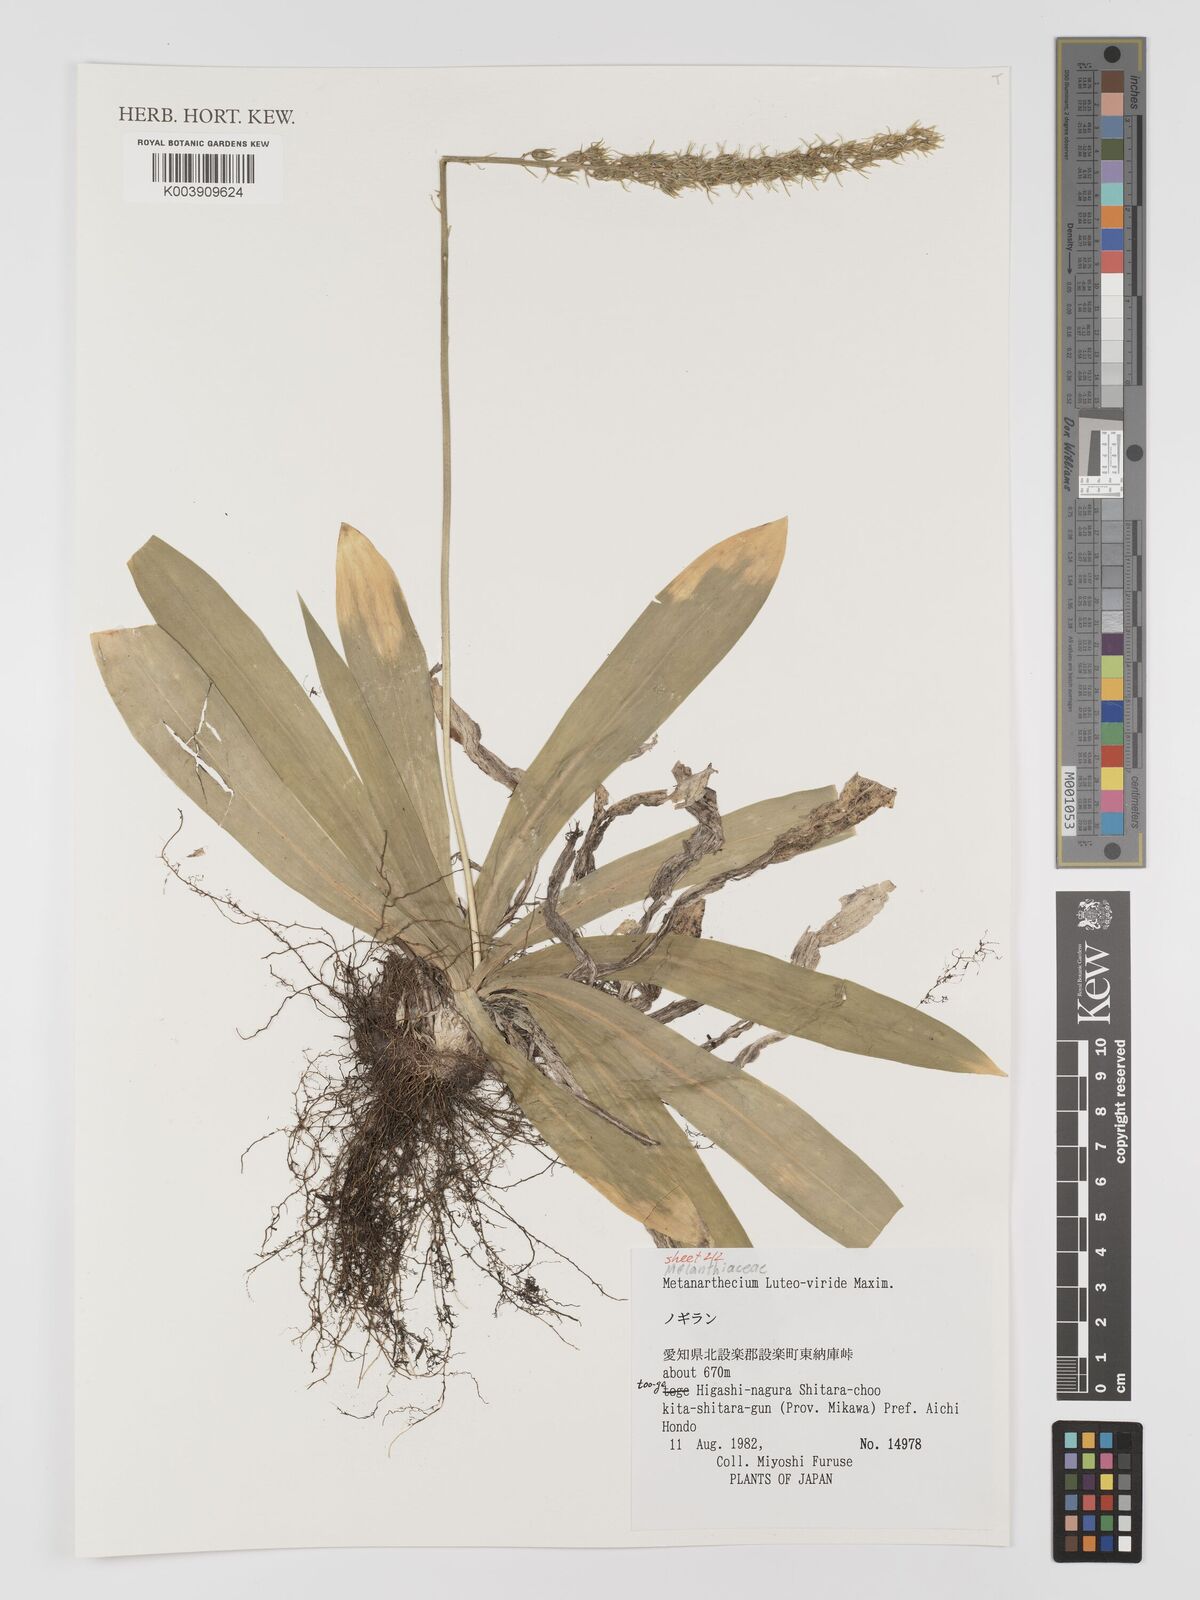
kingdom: Plantae
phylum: Tracheophyta
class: Liliopsida
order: Dioscoreales
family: Nartheciaceae
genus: Metanarthecium
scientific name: Metanarthecium luteoviride
